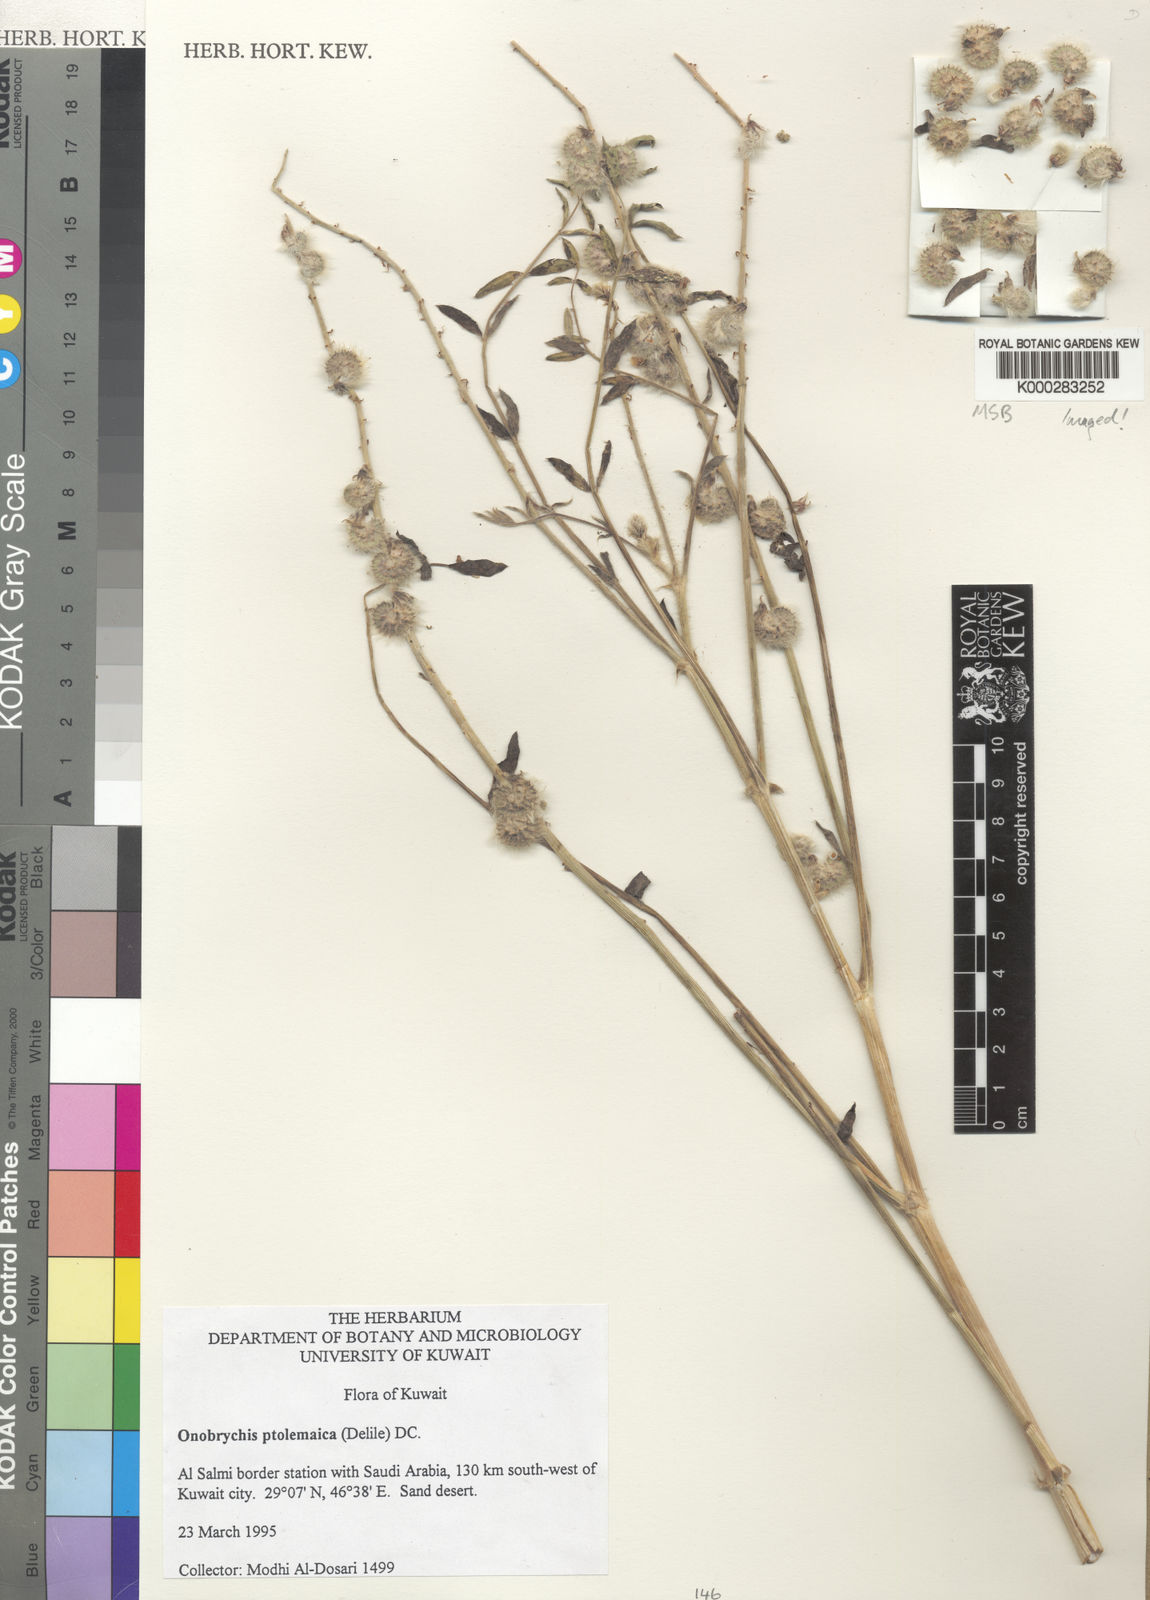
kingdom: Plantae
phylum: Tracheophyta
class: Magnoliopsida
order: Fabales
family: Fabaceae
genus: Onobrychis
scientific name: Onobrychis ptolemaica
